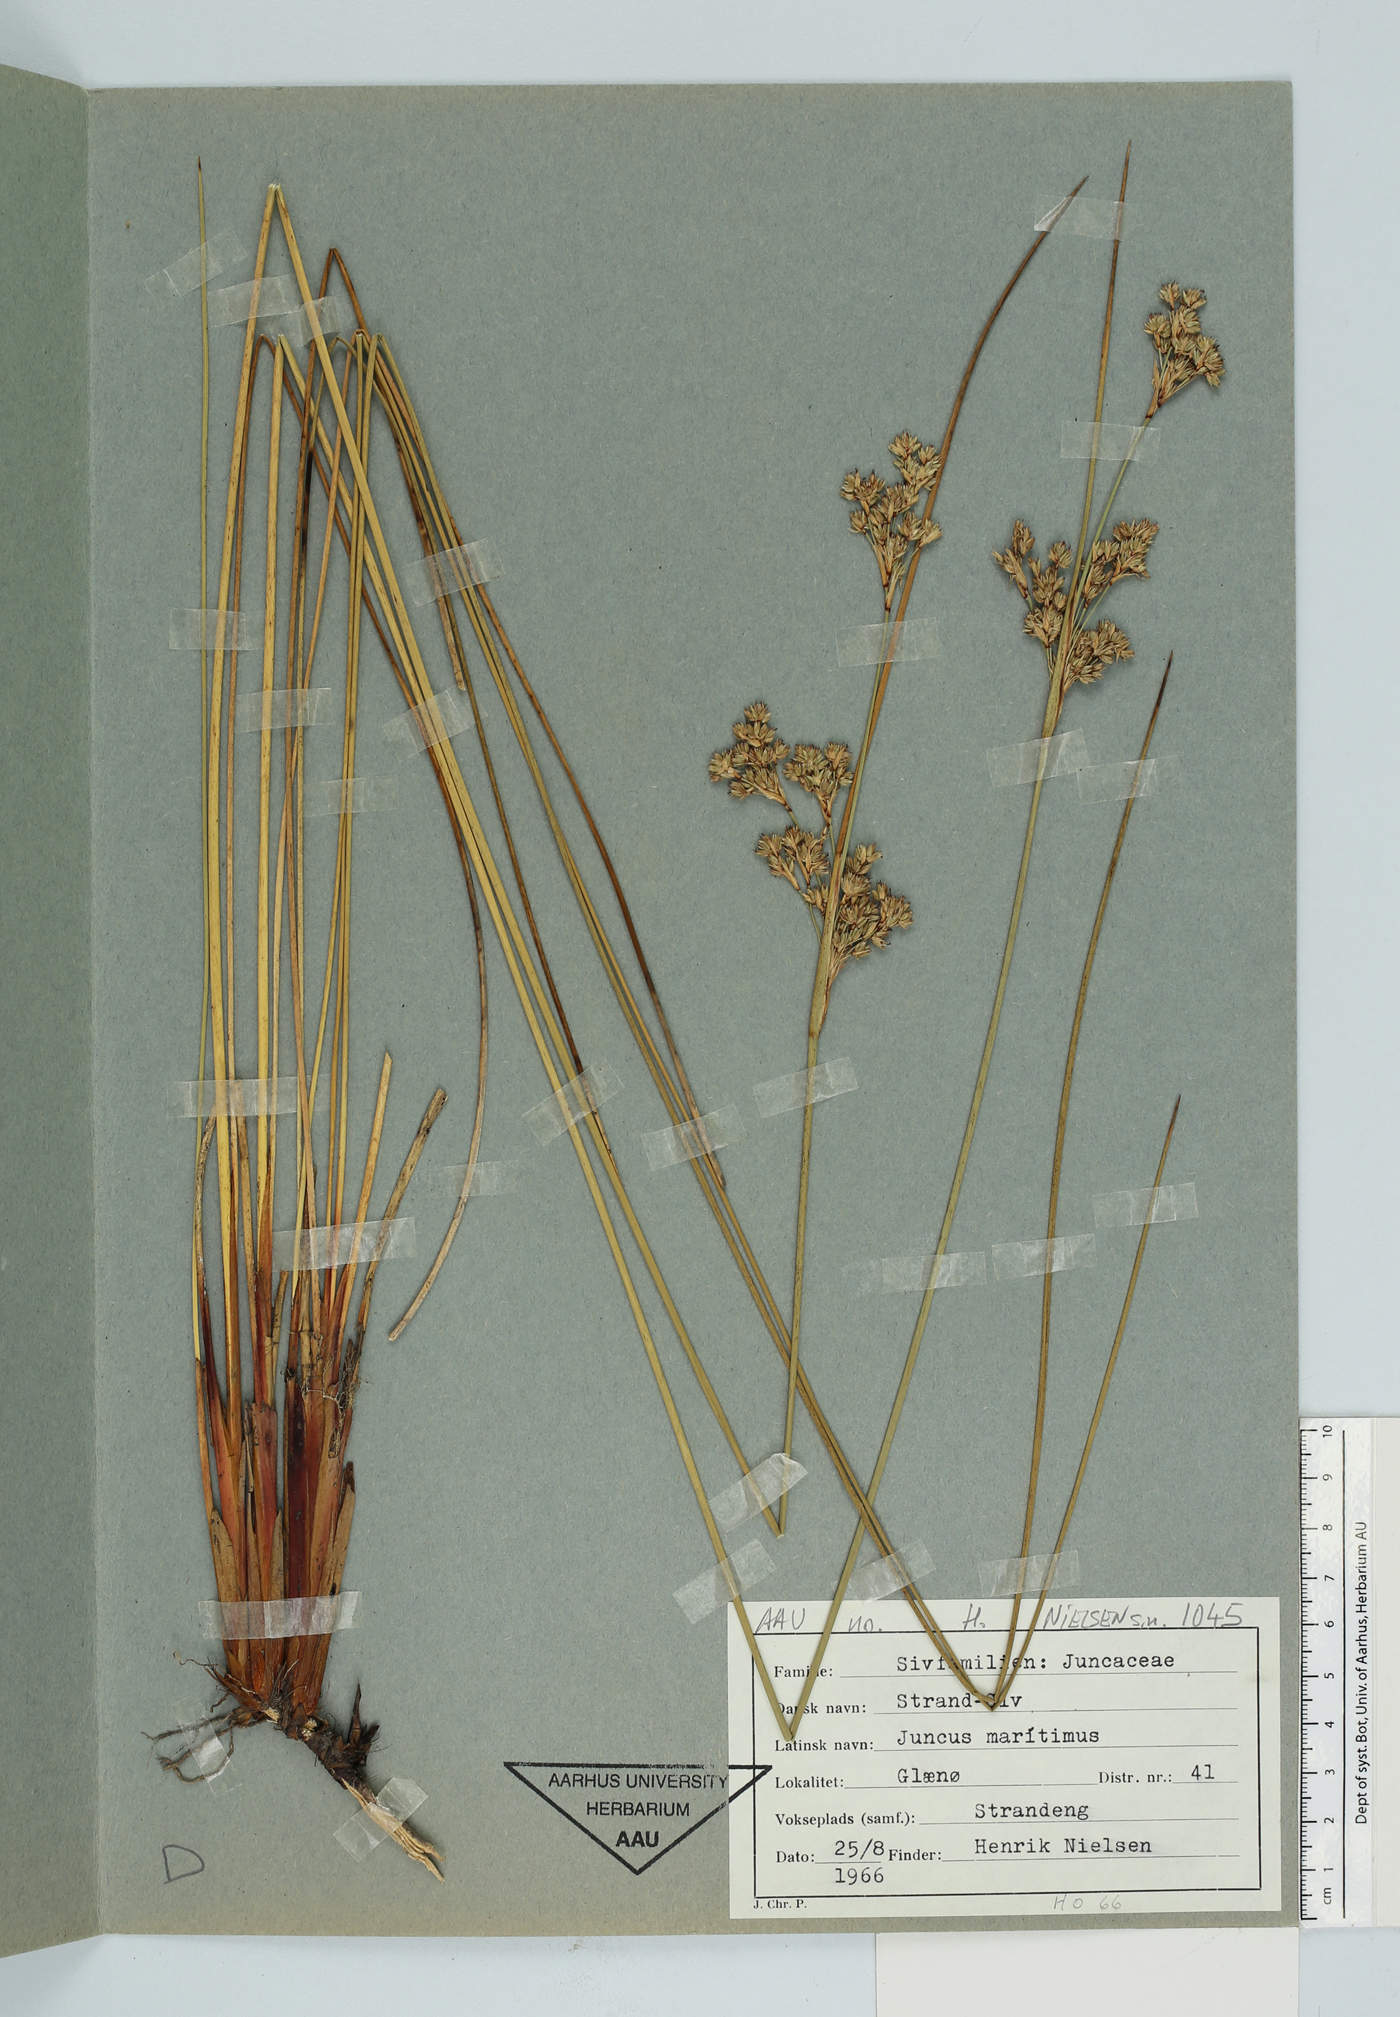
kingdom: Plantae
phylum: Tracheophyta
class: Liliopsida
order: Poales
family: Juncaceae
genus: Juncus
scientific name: Juncus maritimus
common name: Sea rush
